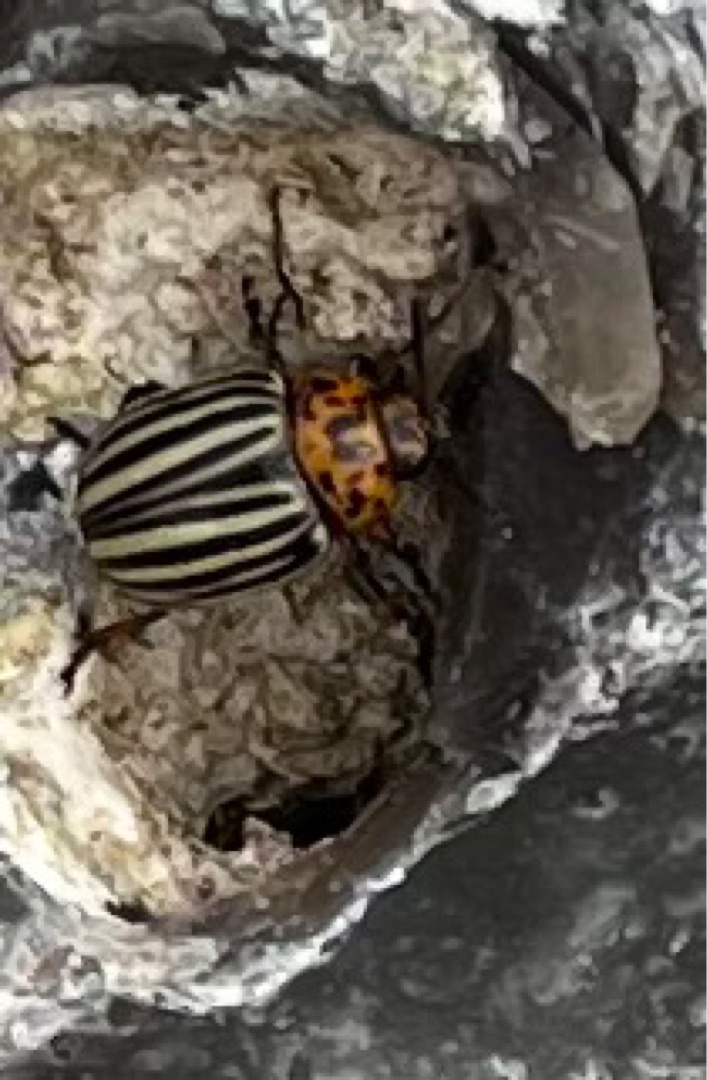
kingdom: Animalia
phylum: Arthropoda
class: Insecta
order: Coleoptera
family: Chrysomelidae
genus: Leptinotarsa
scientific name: Leptinotarsa decemlineata
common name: Coloradobille
